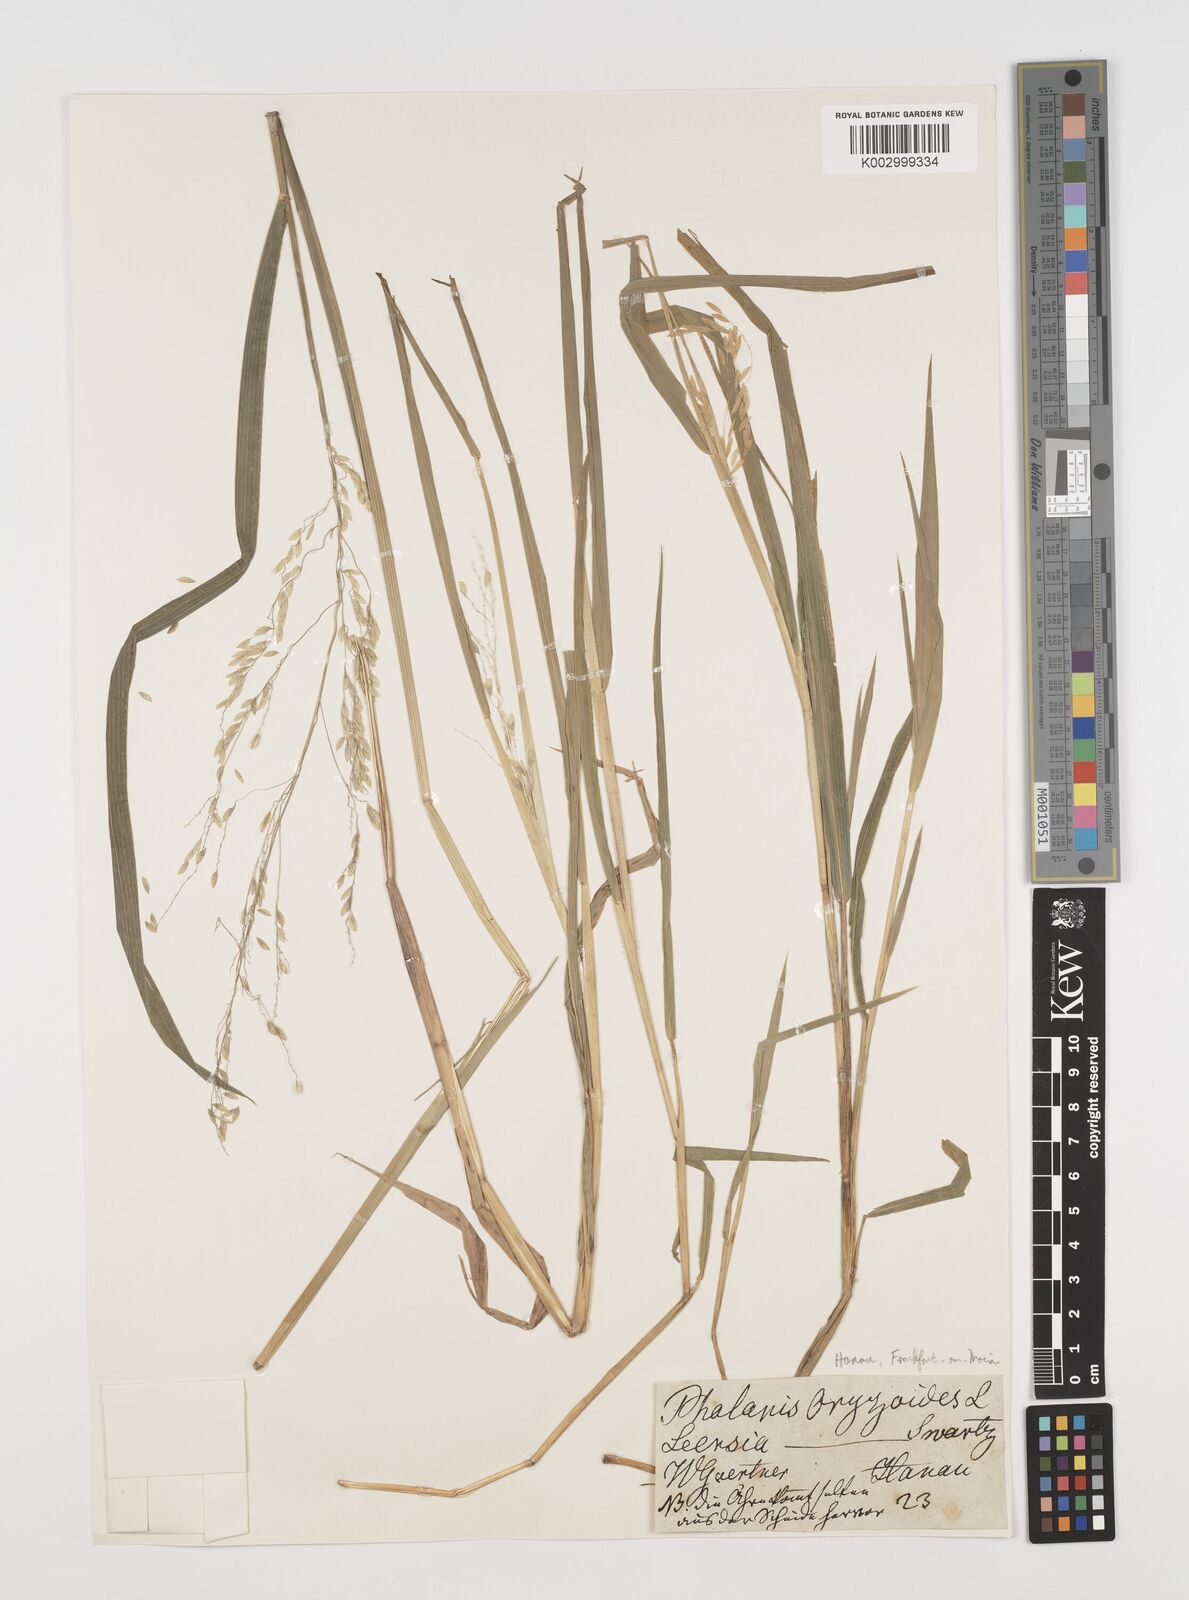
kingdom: Plantae
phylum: Tracheophyta
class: Liliopsida
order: Poales
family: Poaceae
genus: Leersia
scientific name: Leersia oryzoides
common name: Cut-grass
